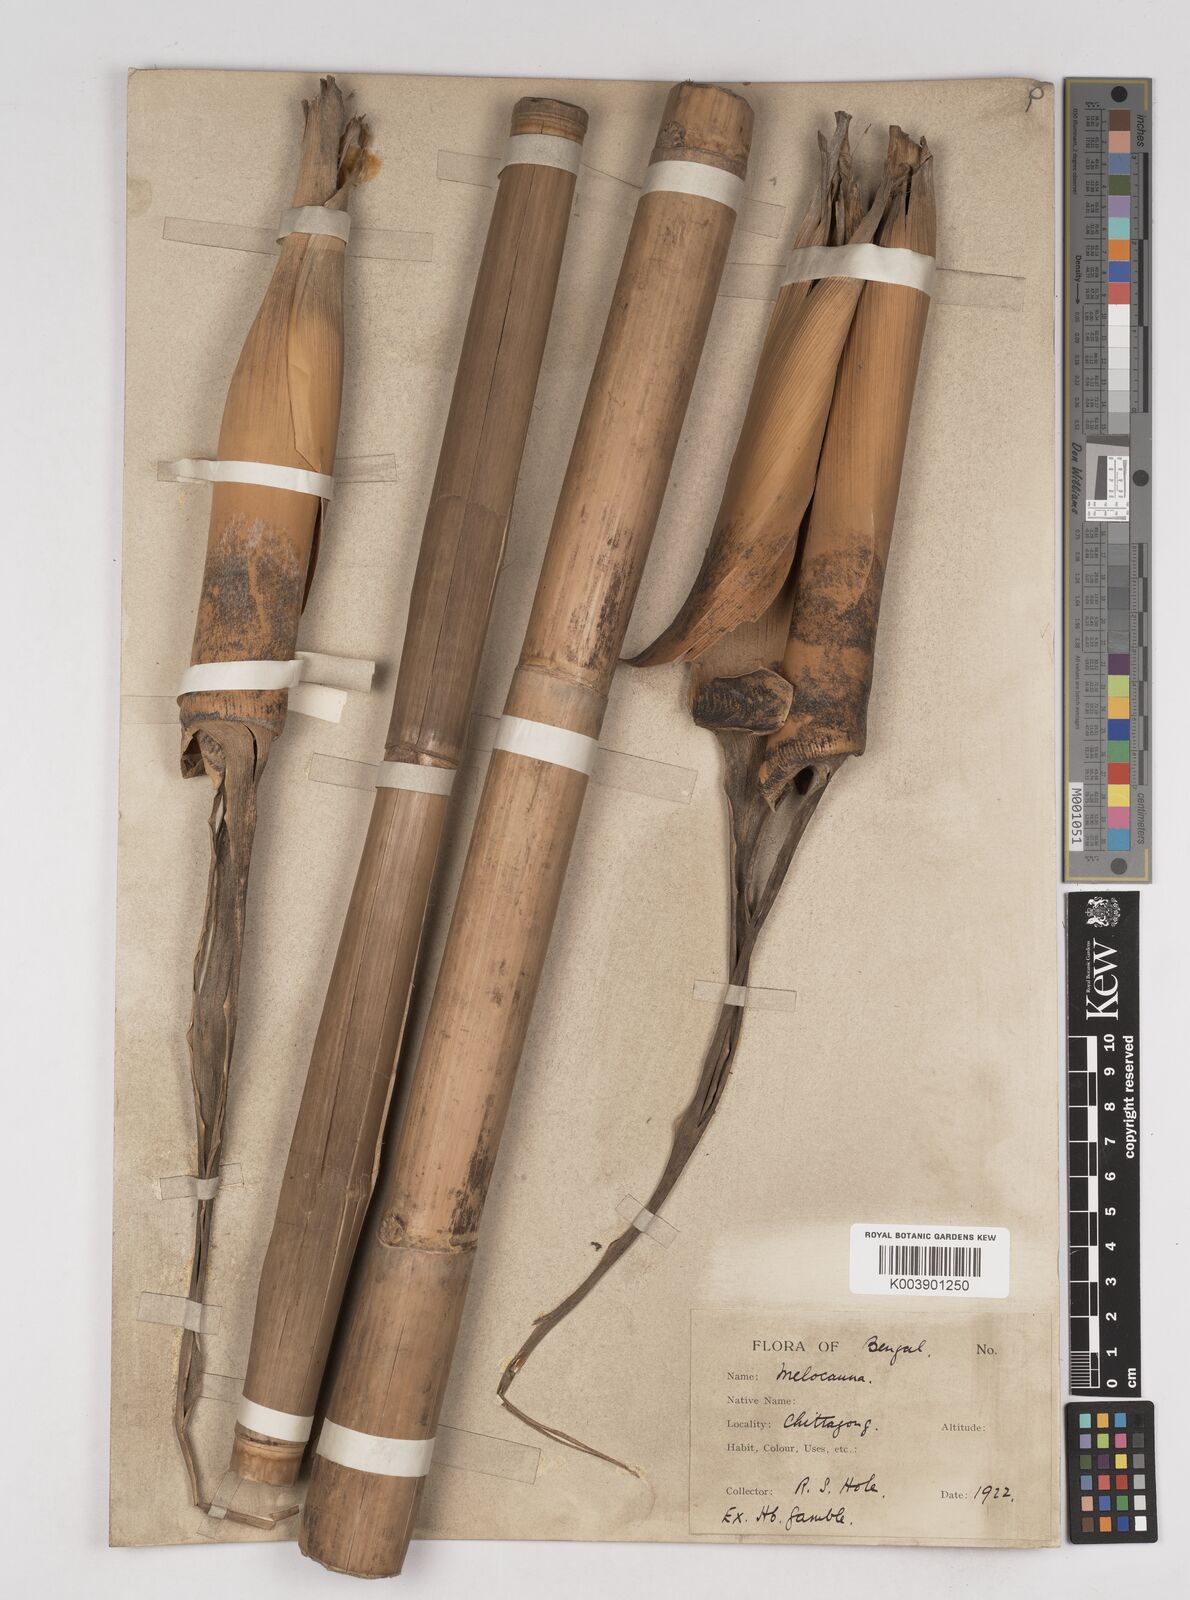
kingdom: Plantae
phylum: Tracheophyta
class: Liliopsida
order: Poales
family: Poaceae
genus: Melocanna
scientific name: Melocanna
